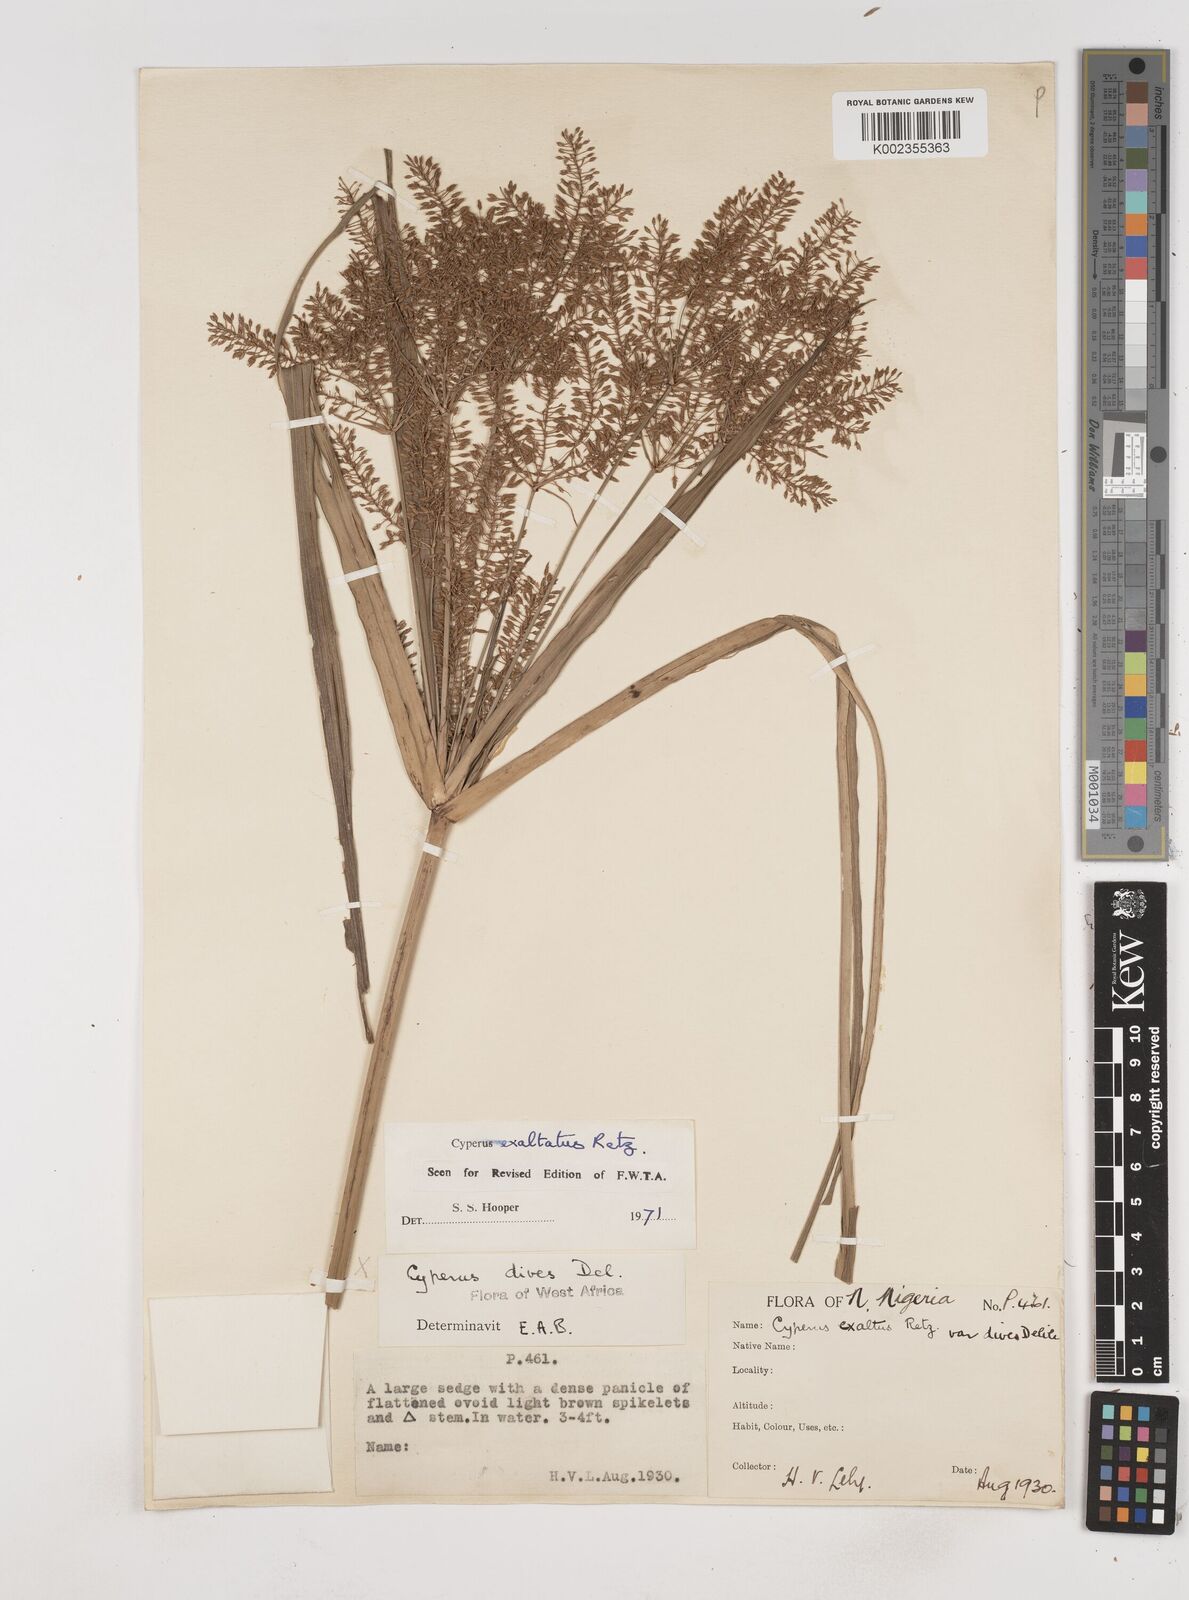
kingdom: Plantae
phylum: Tracheophyta
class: Liliopsida
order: Poales
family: Cyperaceae
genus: Cyperus
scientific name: Cyperus exaltatus
